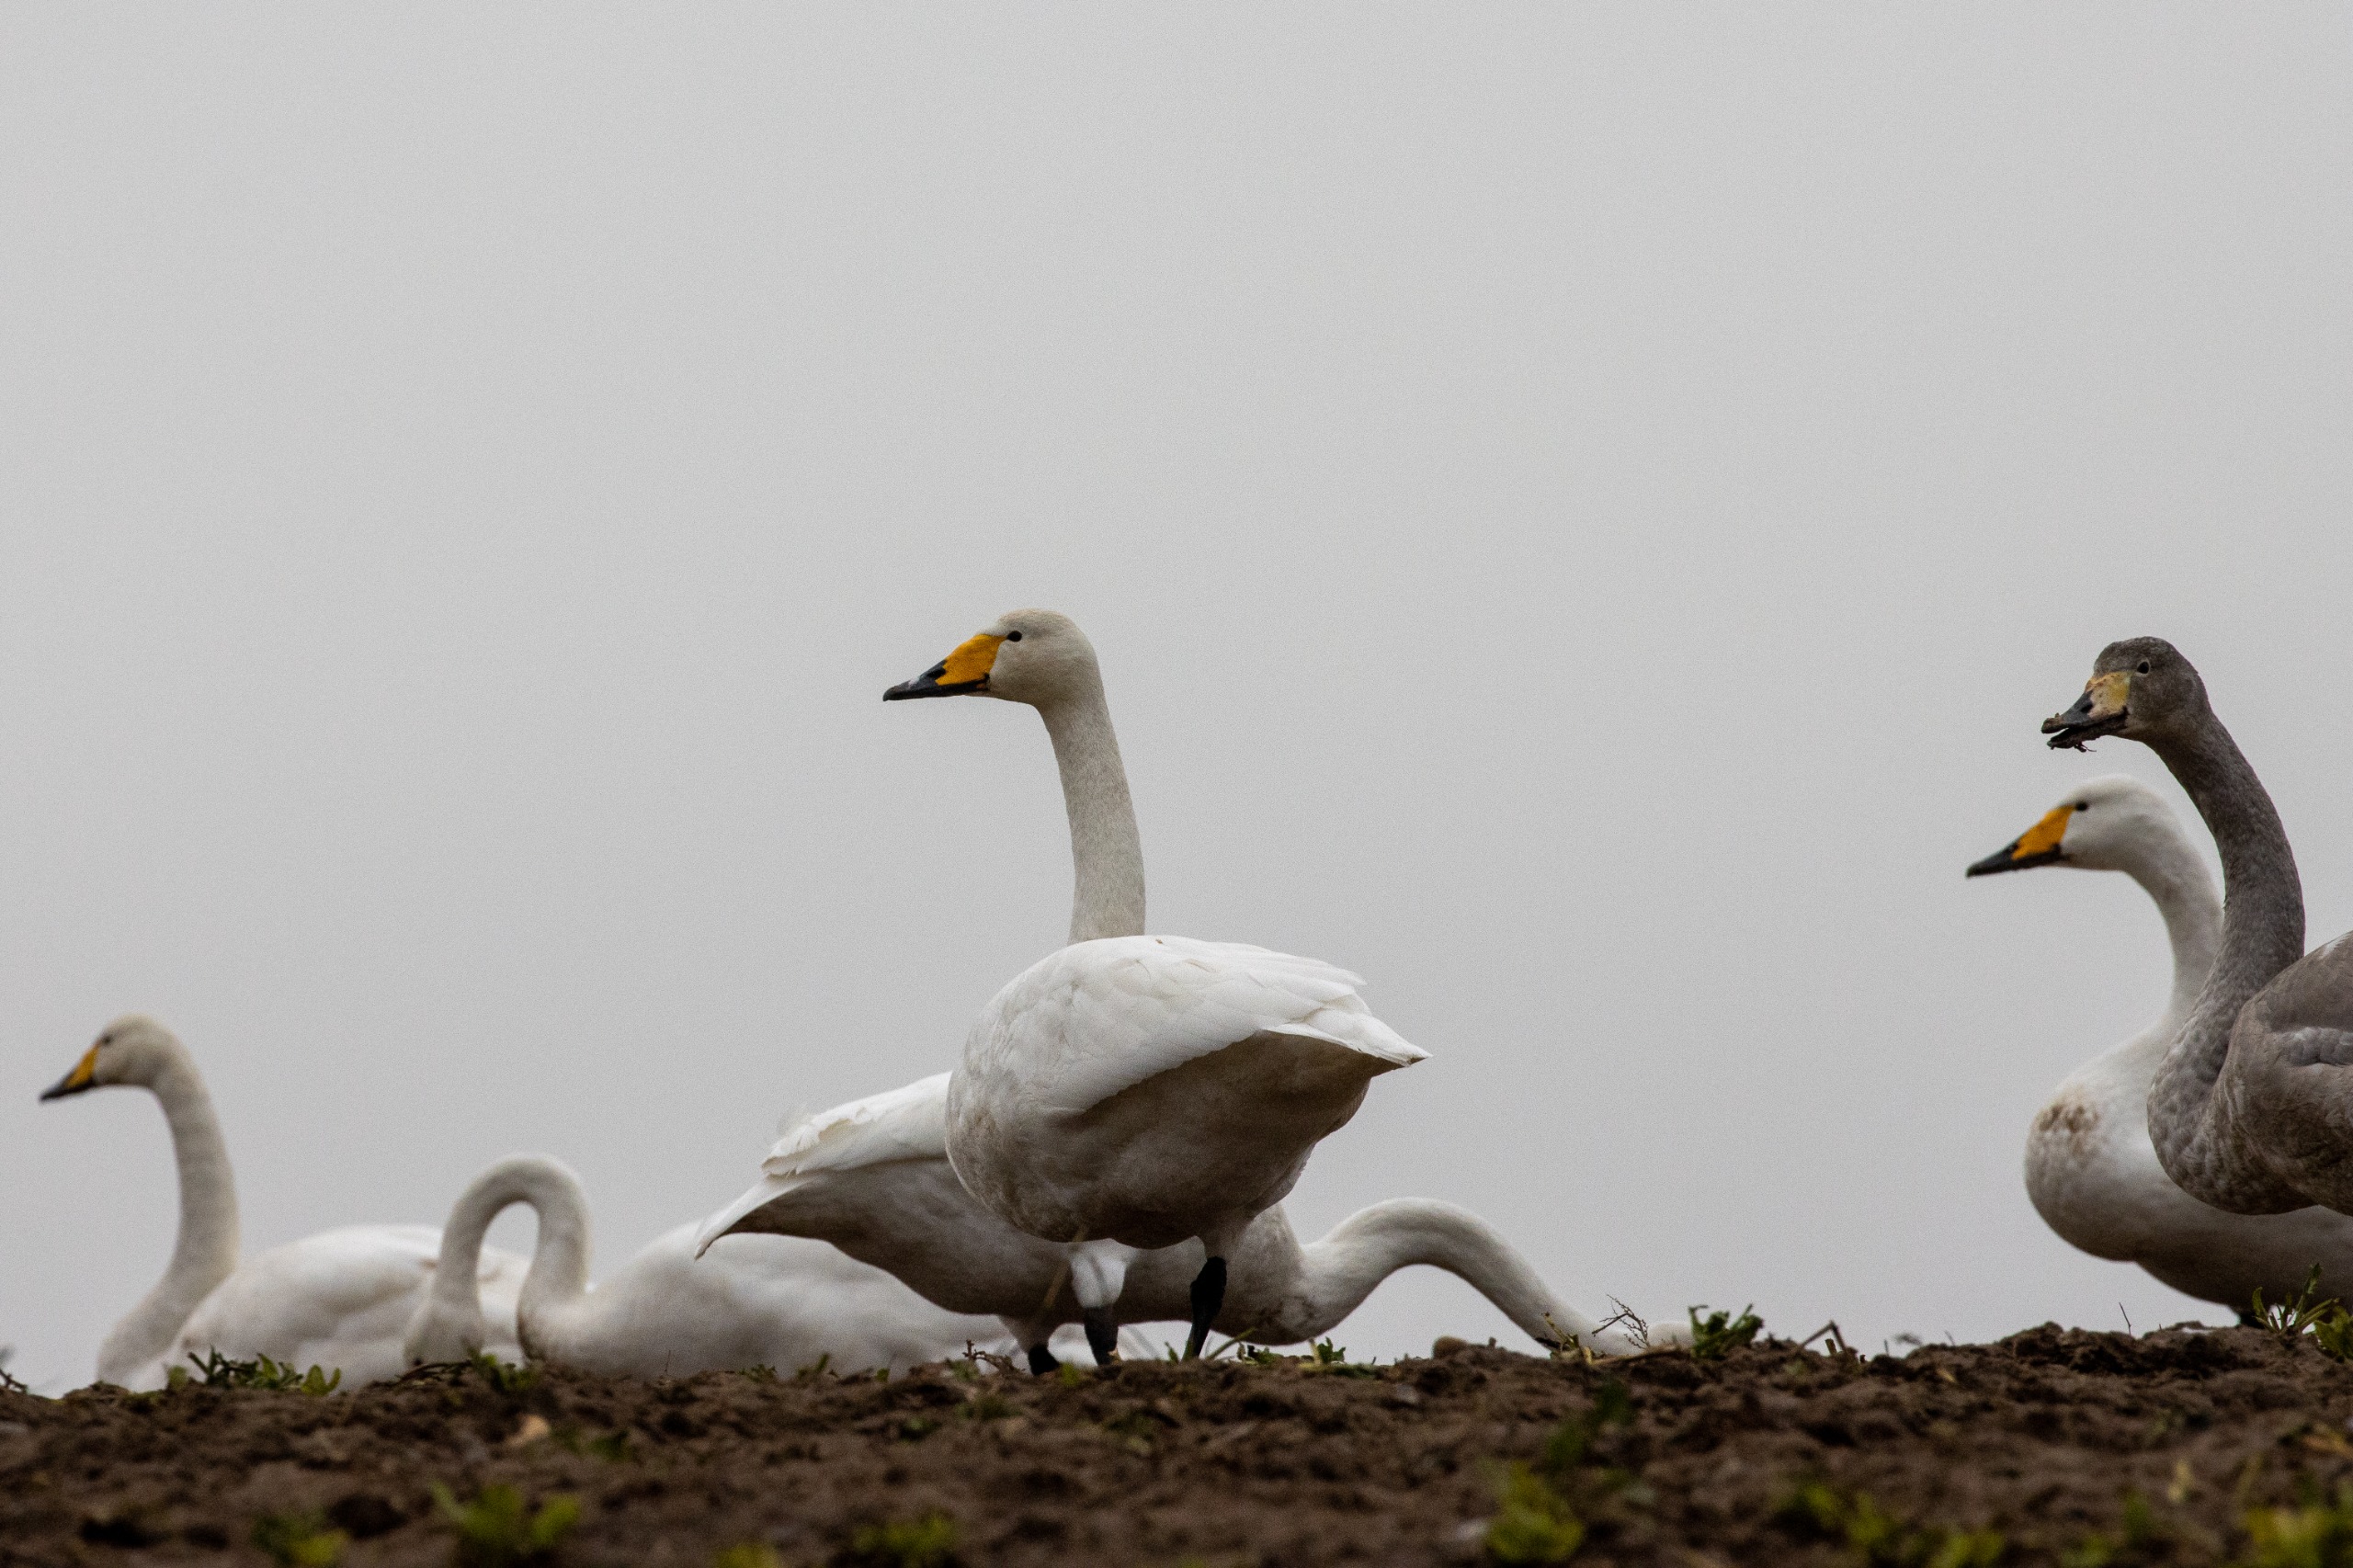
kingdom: Animalia
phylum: Chordata
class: Aves
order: Anseriformes
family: Anatidae
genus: Cygnus
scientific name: Cygnus cygnus
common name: Sangsvane
